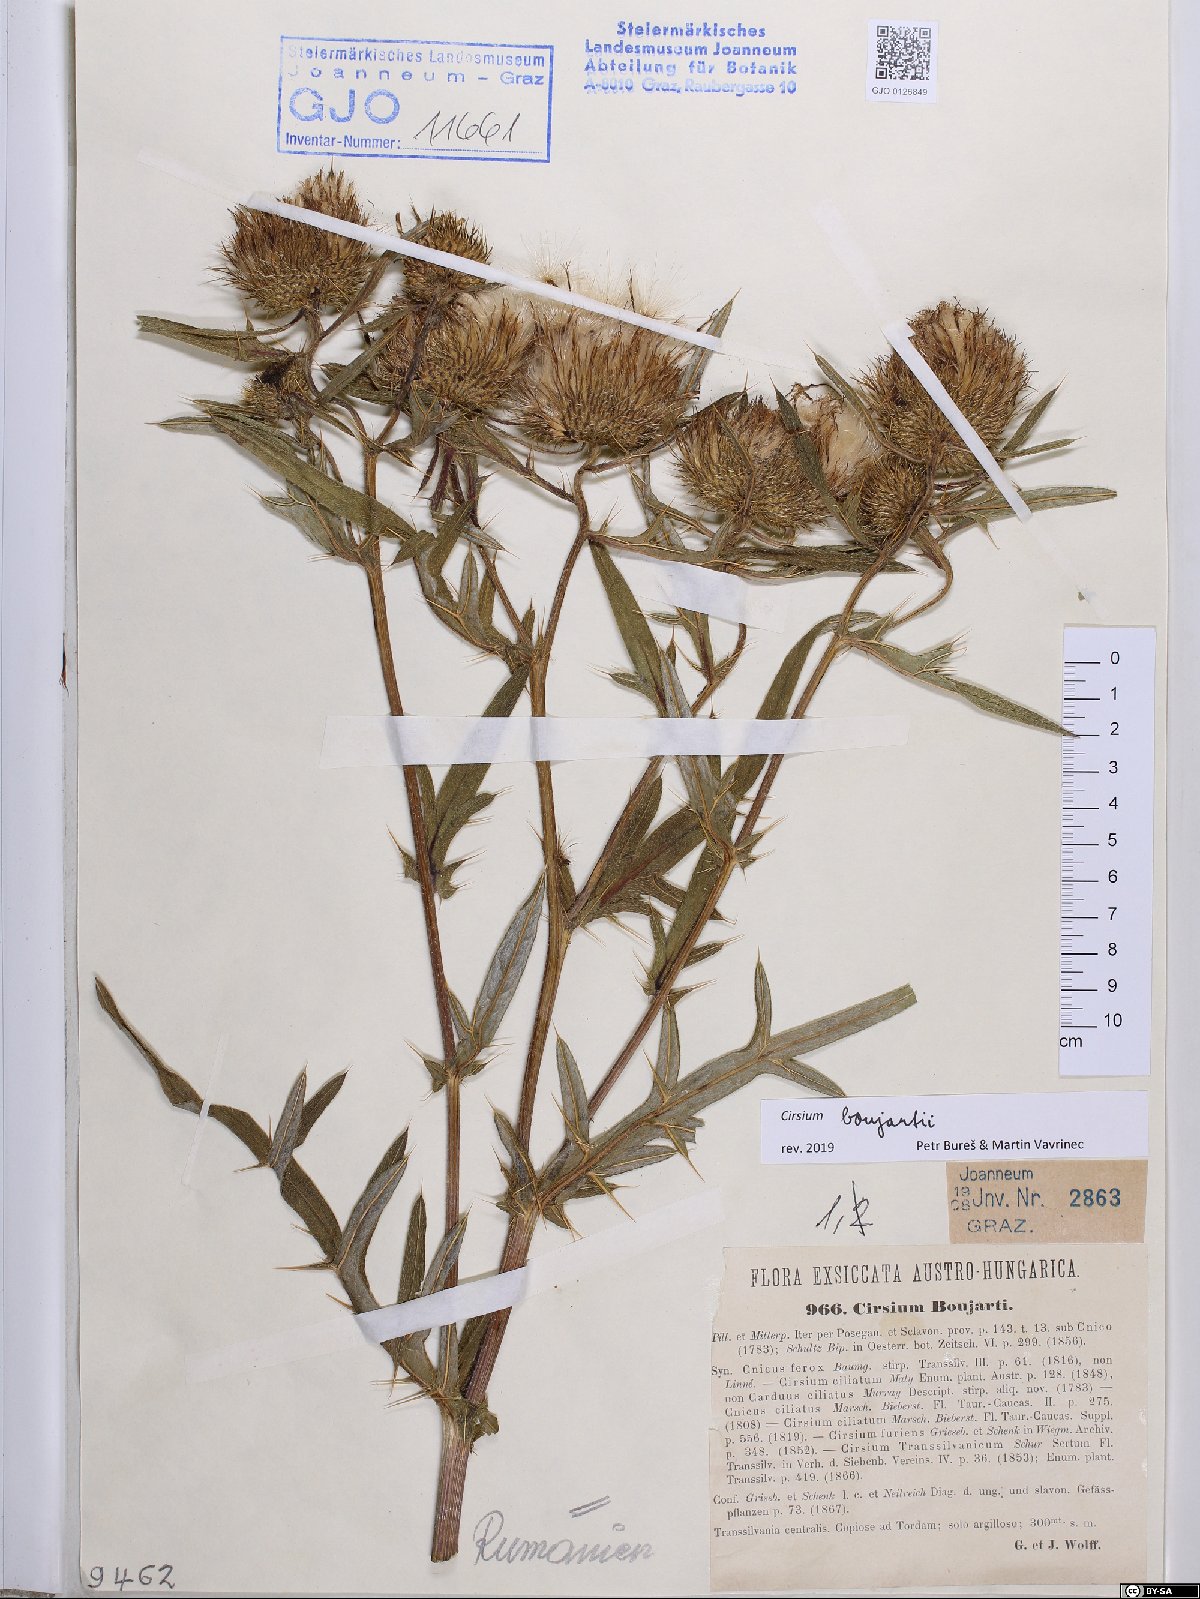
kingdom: Plantae
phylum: Tracheophyta
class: Magnoliopsida
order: Asterales
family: Asteraceae
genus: Lophiolepis
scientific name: Lophiolepis boujartii
